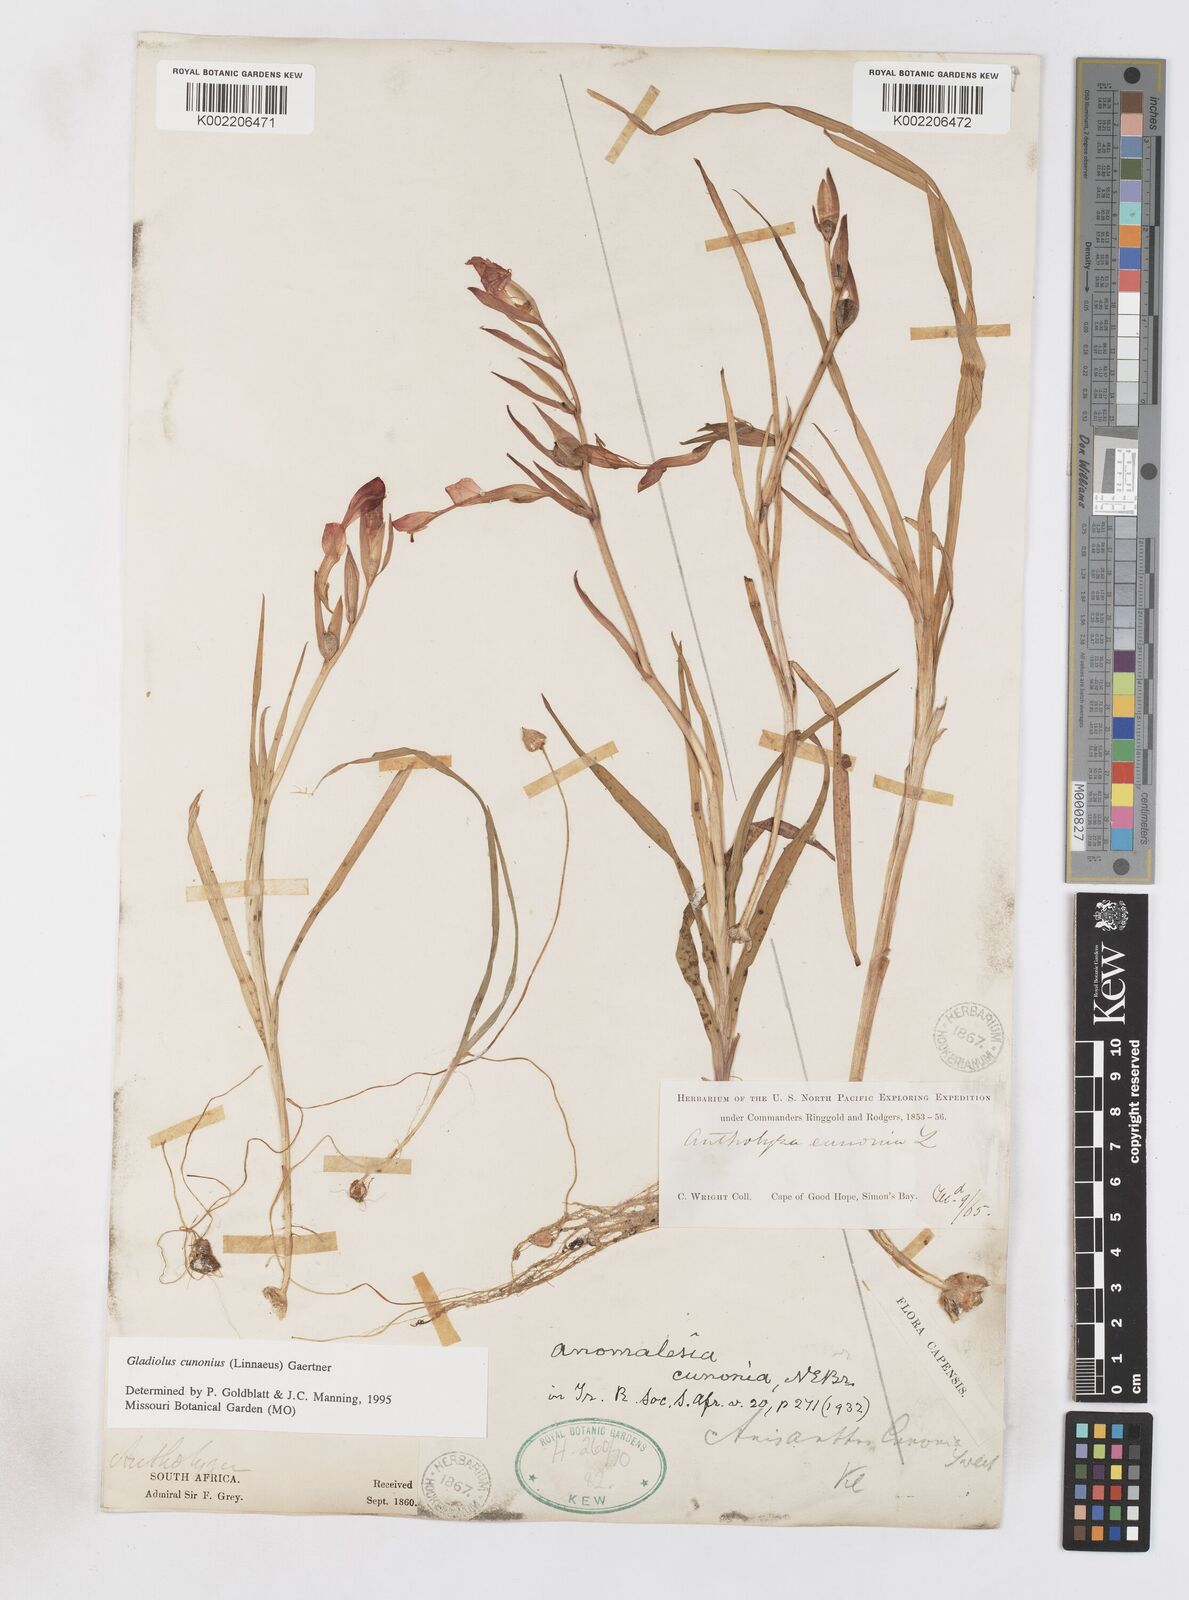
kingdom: Plantae
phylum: Tracheophyta
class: Liliopsida
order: Asparagales
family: Iridaceae
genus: Gladiolus
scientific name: Gladiolus cunonius
